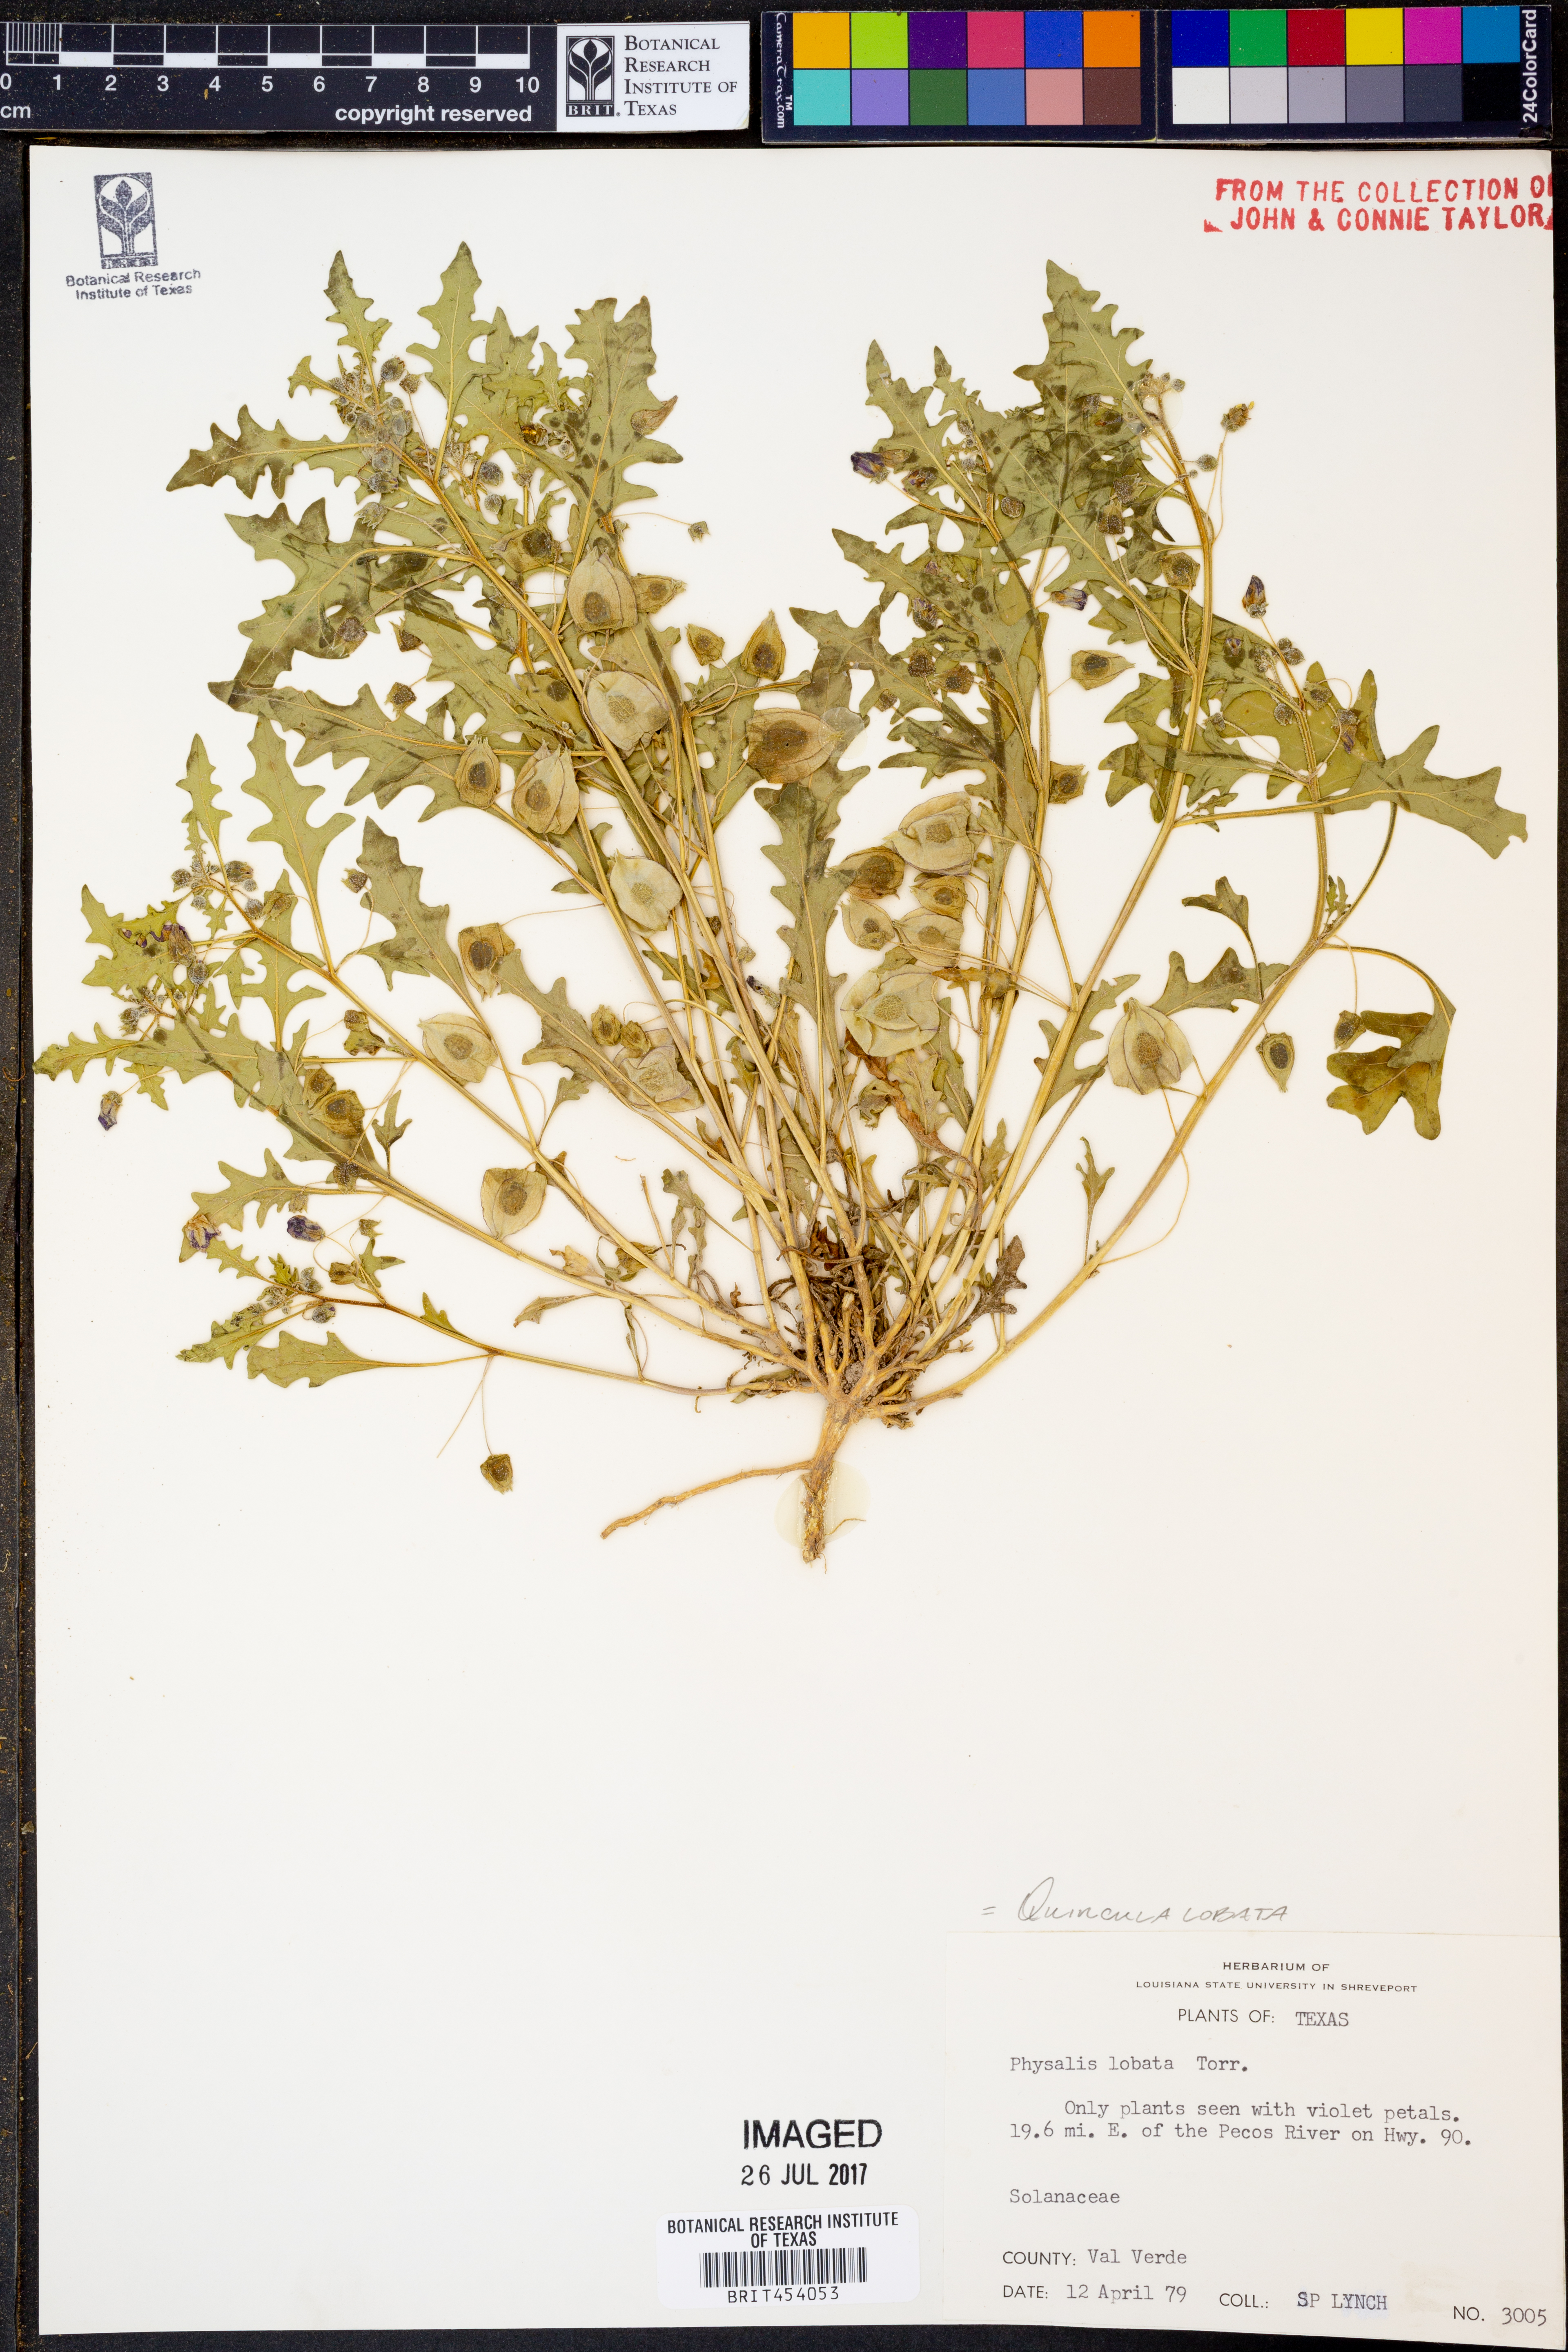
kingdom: Plantae
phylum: Tracheophyta
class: Magnoliopsida
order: Solanales
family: Solanaceae
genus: Quincula
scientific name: Quincula lobata
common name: Purple-ground-cherry
